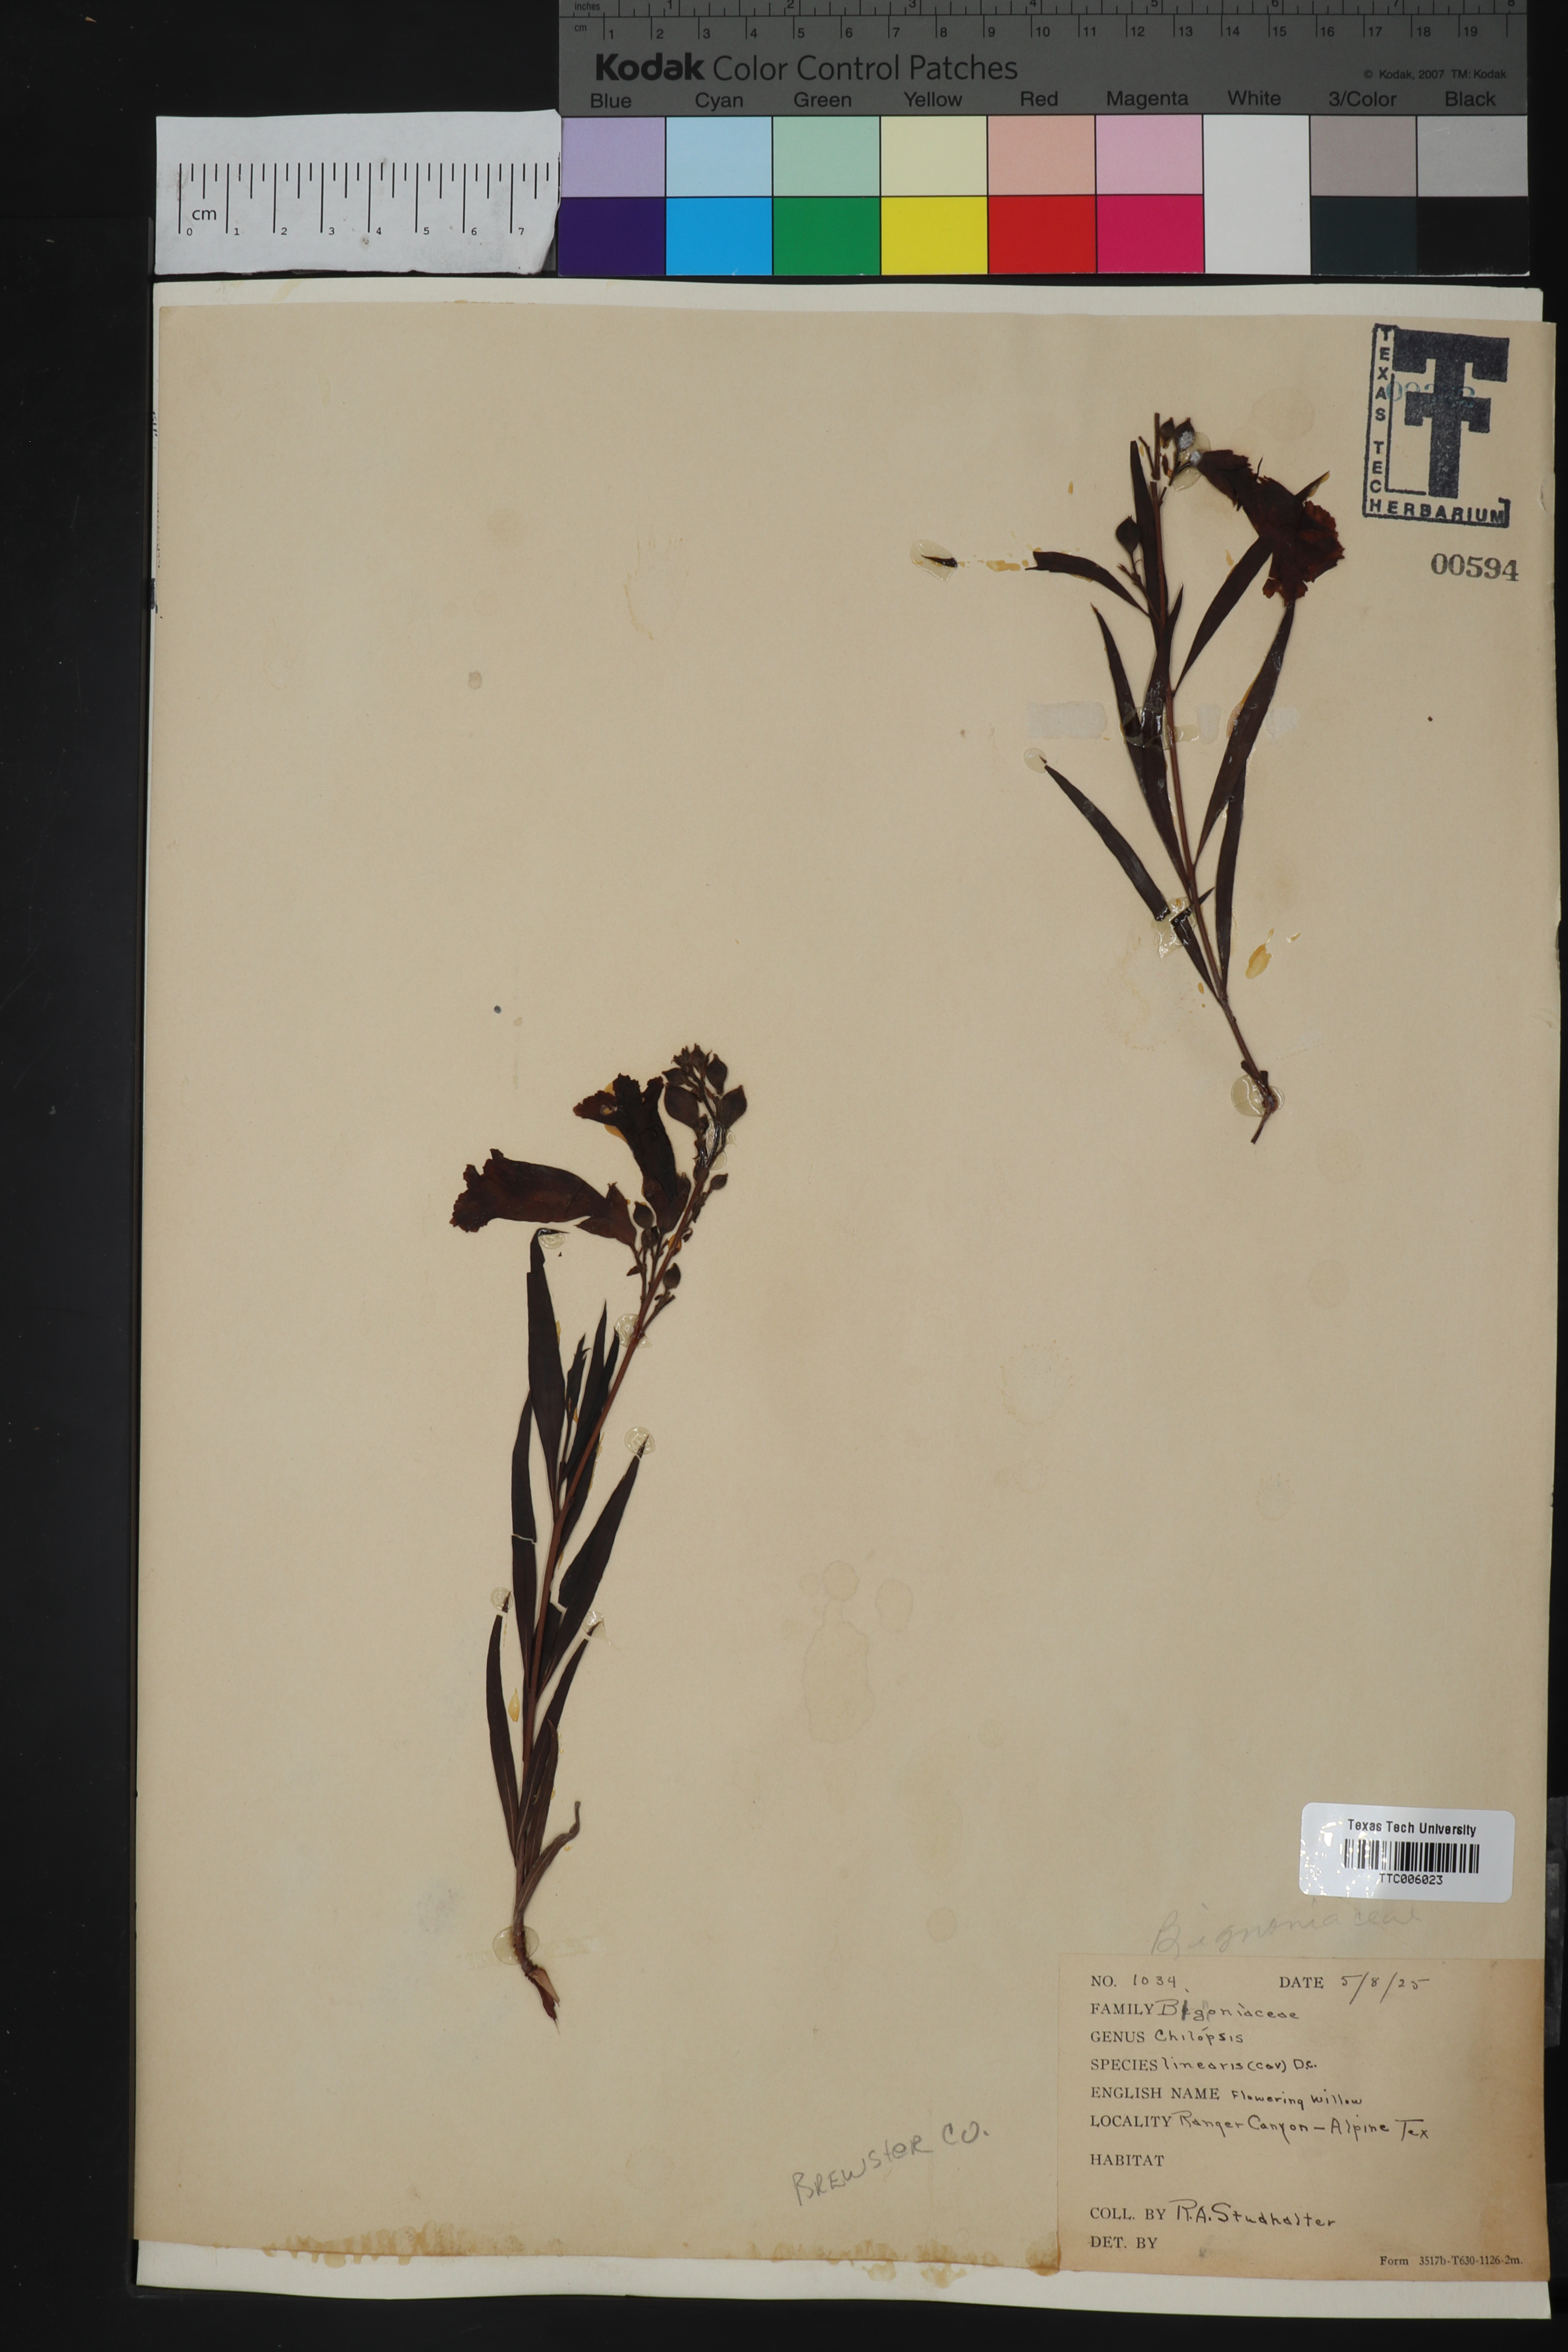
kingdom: Plantae
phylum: Tracheophyta
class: Magnoliopsida
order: Lamiales
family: Bignoniaceae
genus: Chilopsis
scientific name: Chilopsis linearis
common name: Desert-willow
